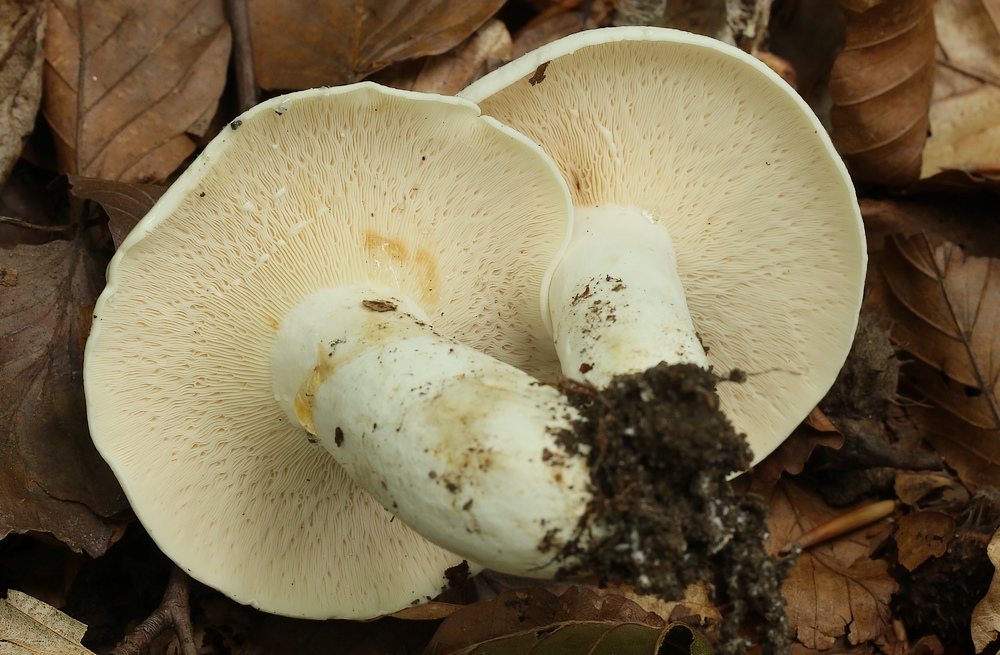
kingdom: Fungi
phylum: Basidiomycota
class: Agaricomycetes
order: Russulales
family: Russulaceae
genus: Lactifluus
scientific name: Lactifluus glaucescens
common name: grønplettet mælkehat
